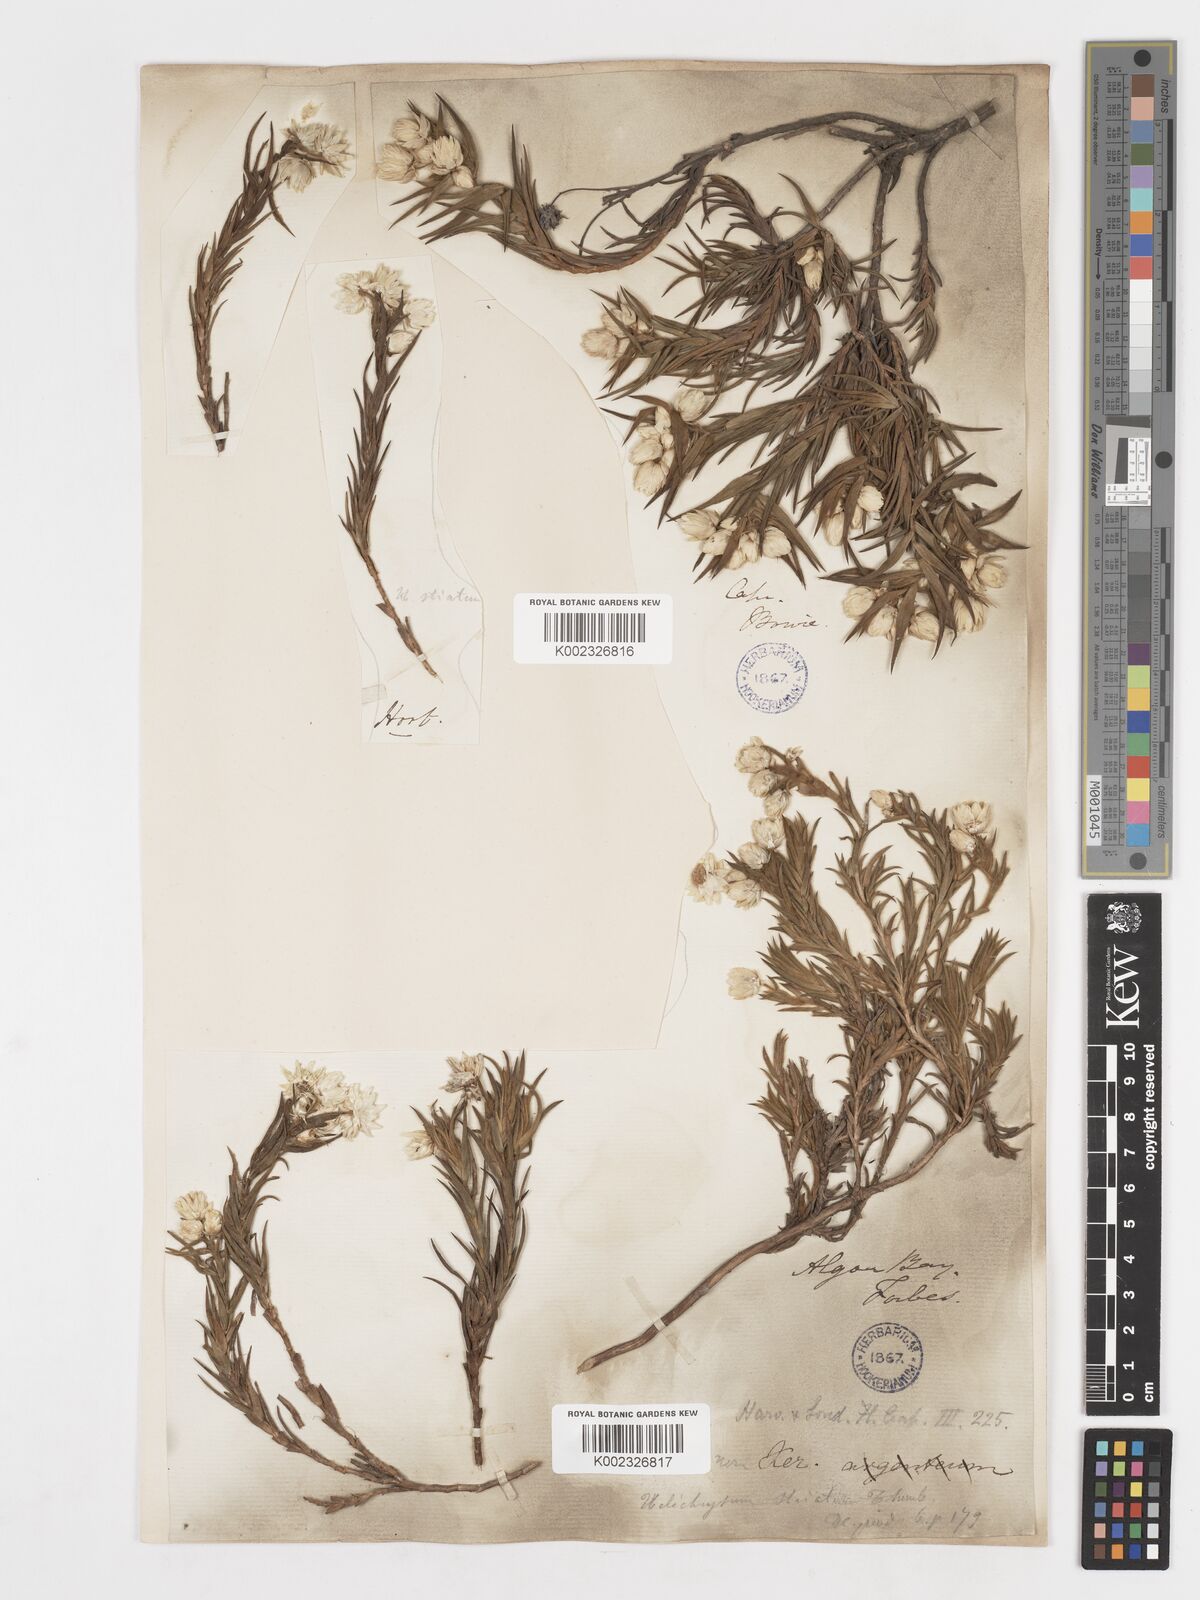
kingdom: Plantae
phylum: Tracheophyta
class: Magnoliopsida
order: Asterales
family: Asteraceae
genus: Achyranthemum
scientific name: Achyranthemum striatum
